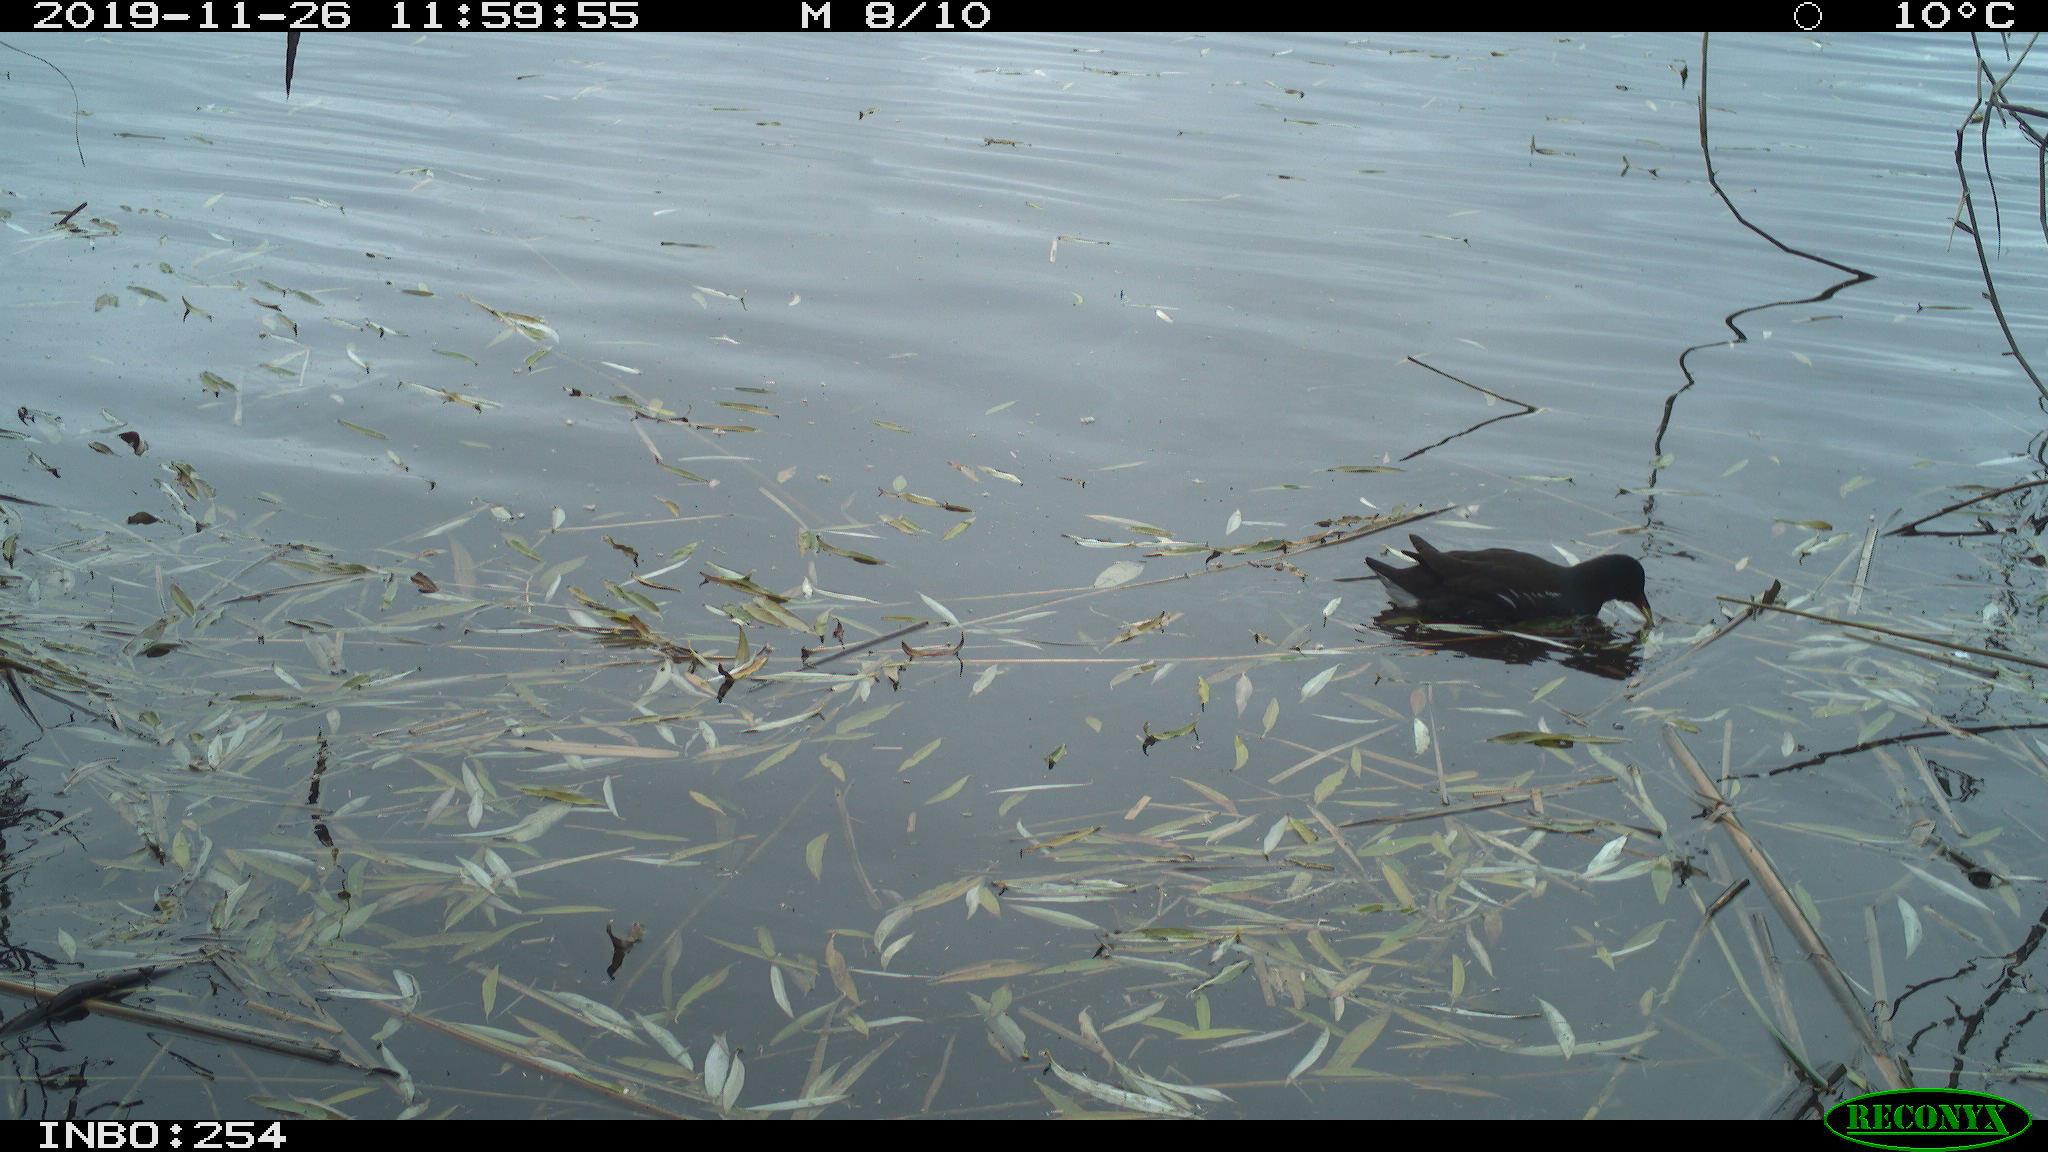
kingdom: Animalia
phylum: Chordata
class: Aves
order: Gruiformes
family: Rallidae
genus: Gallinula
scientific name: Gallinula chloropus
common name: Common moorhen
